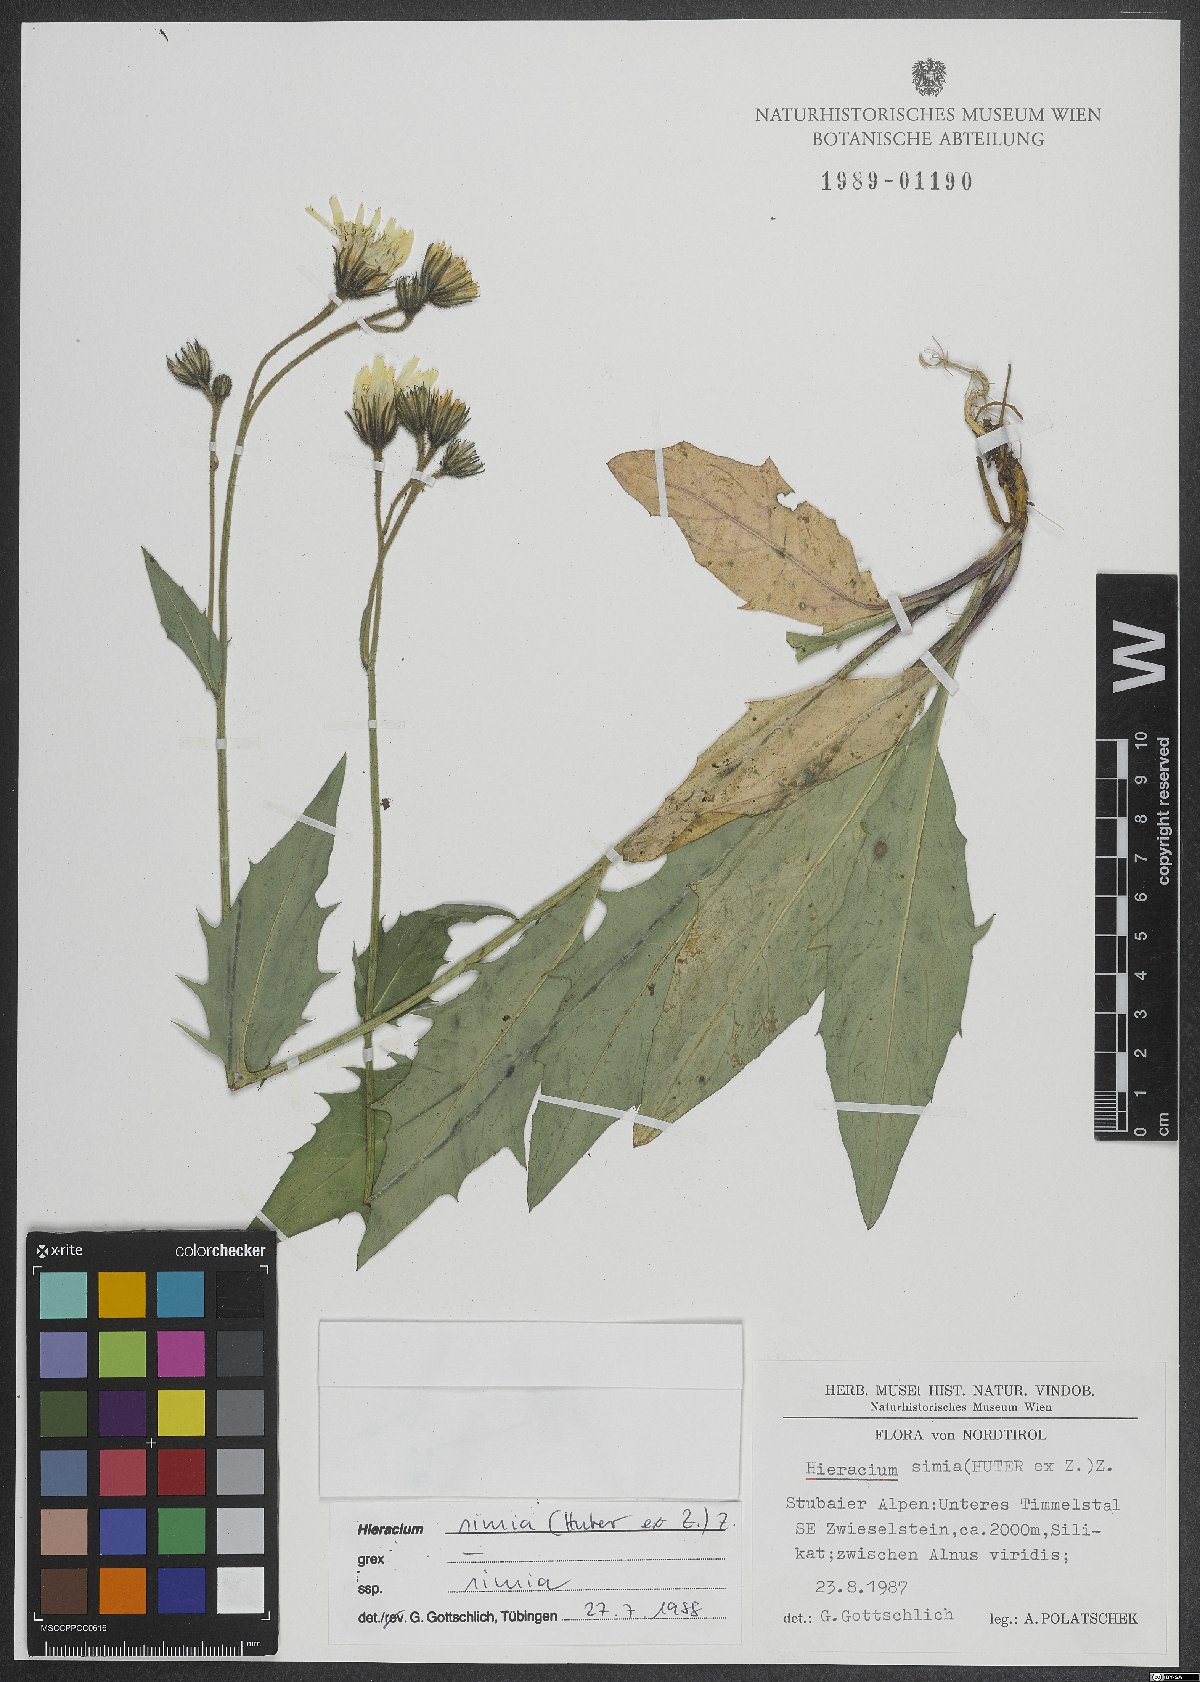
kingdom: Plantae
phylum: Tracheophyta
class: Magnoliopsida
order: Asterales
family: Asteraceae
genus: Hieracium
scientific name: Hieracium simia
